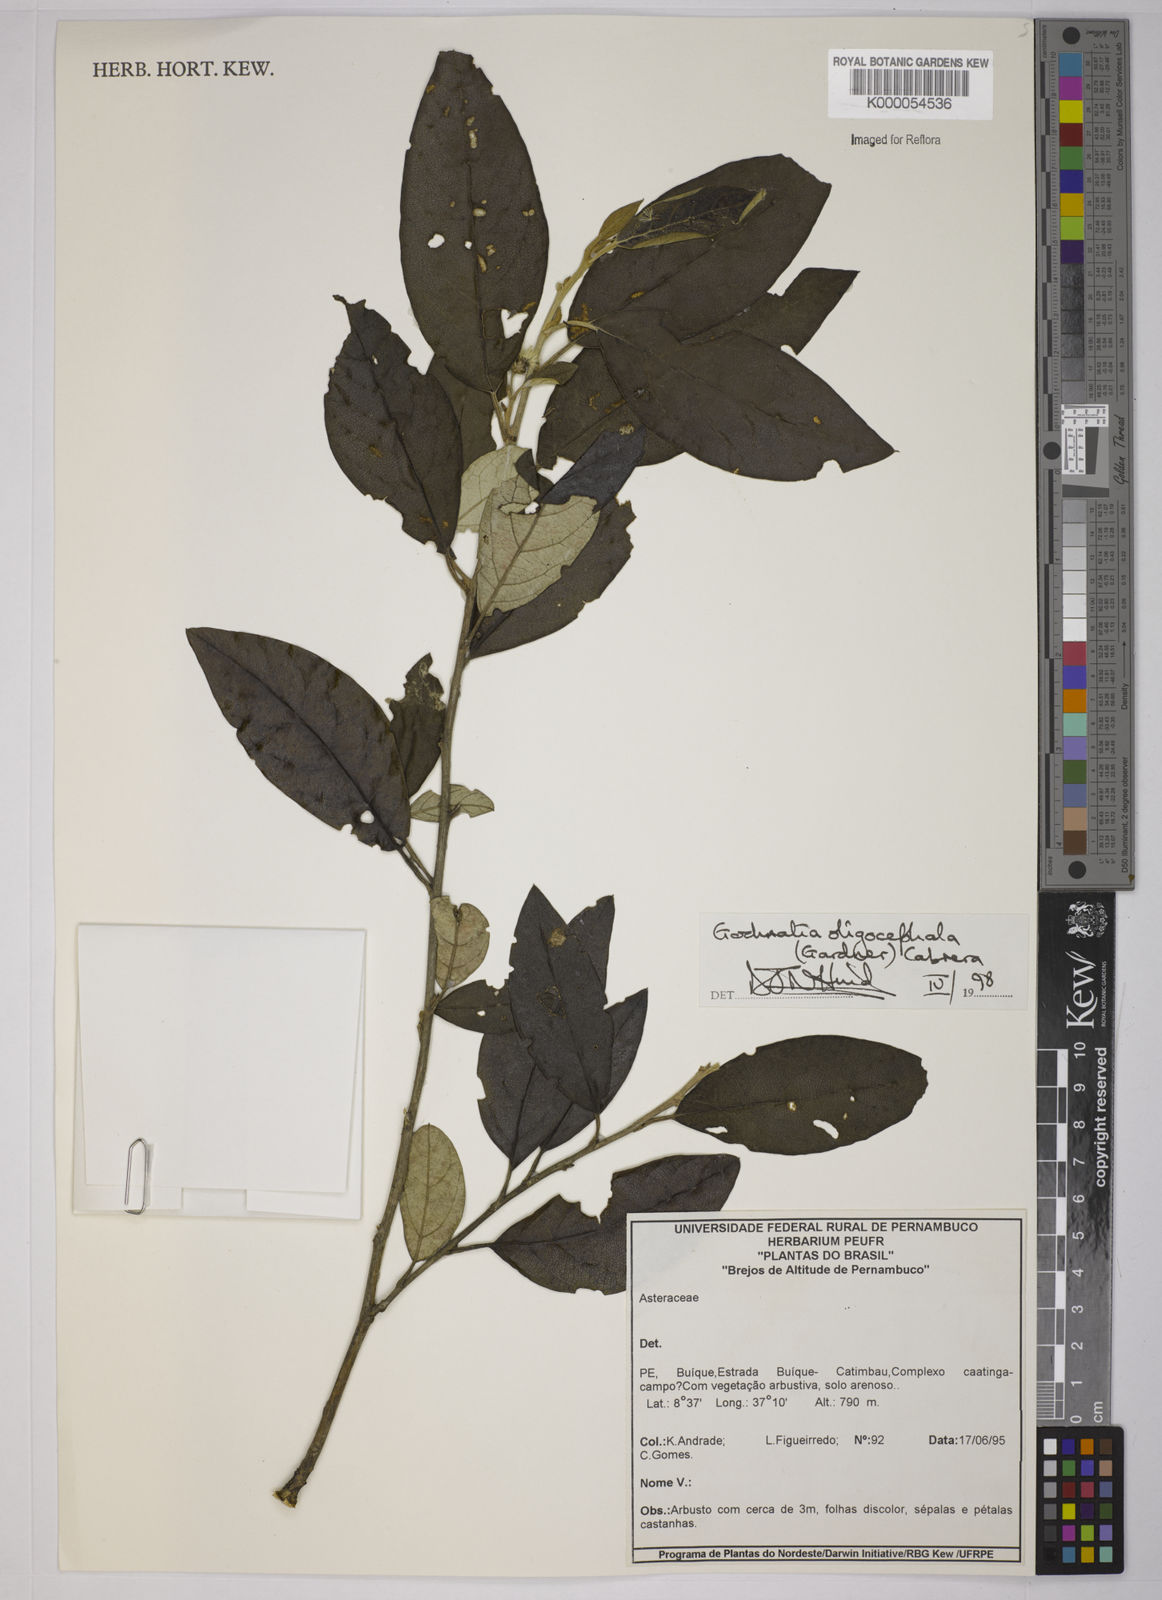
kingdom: Plantae
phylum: Tracheophyta
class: Magnoliopsida
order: Asterales
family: Asteraceae
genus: Moquiniastrum
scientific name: Moquiniastrum oligocephalum
